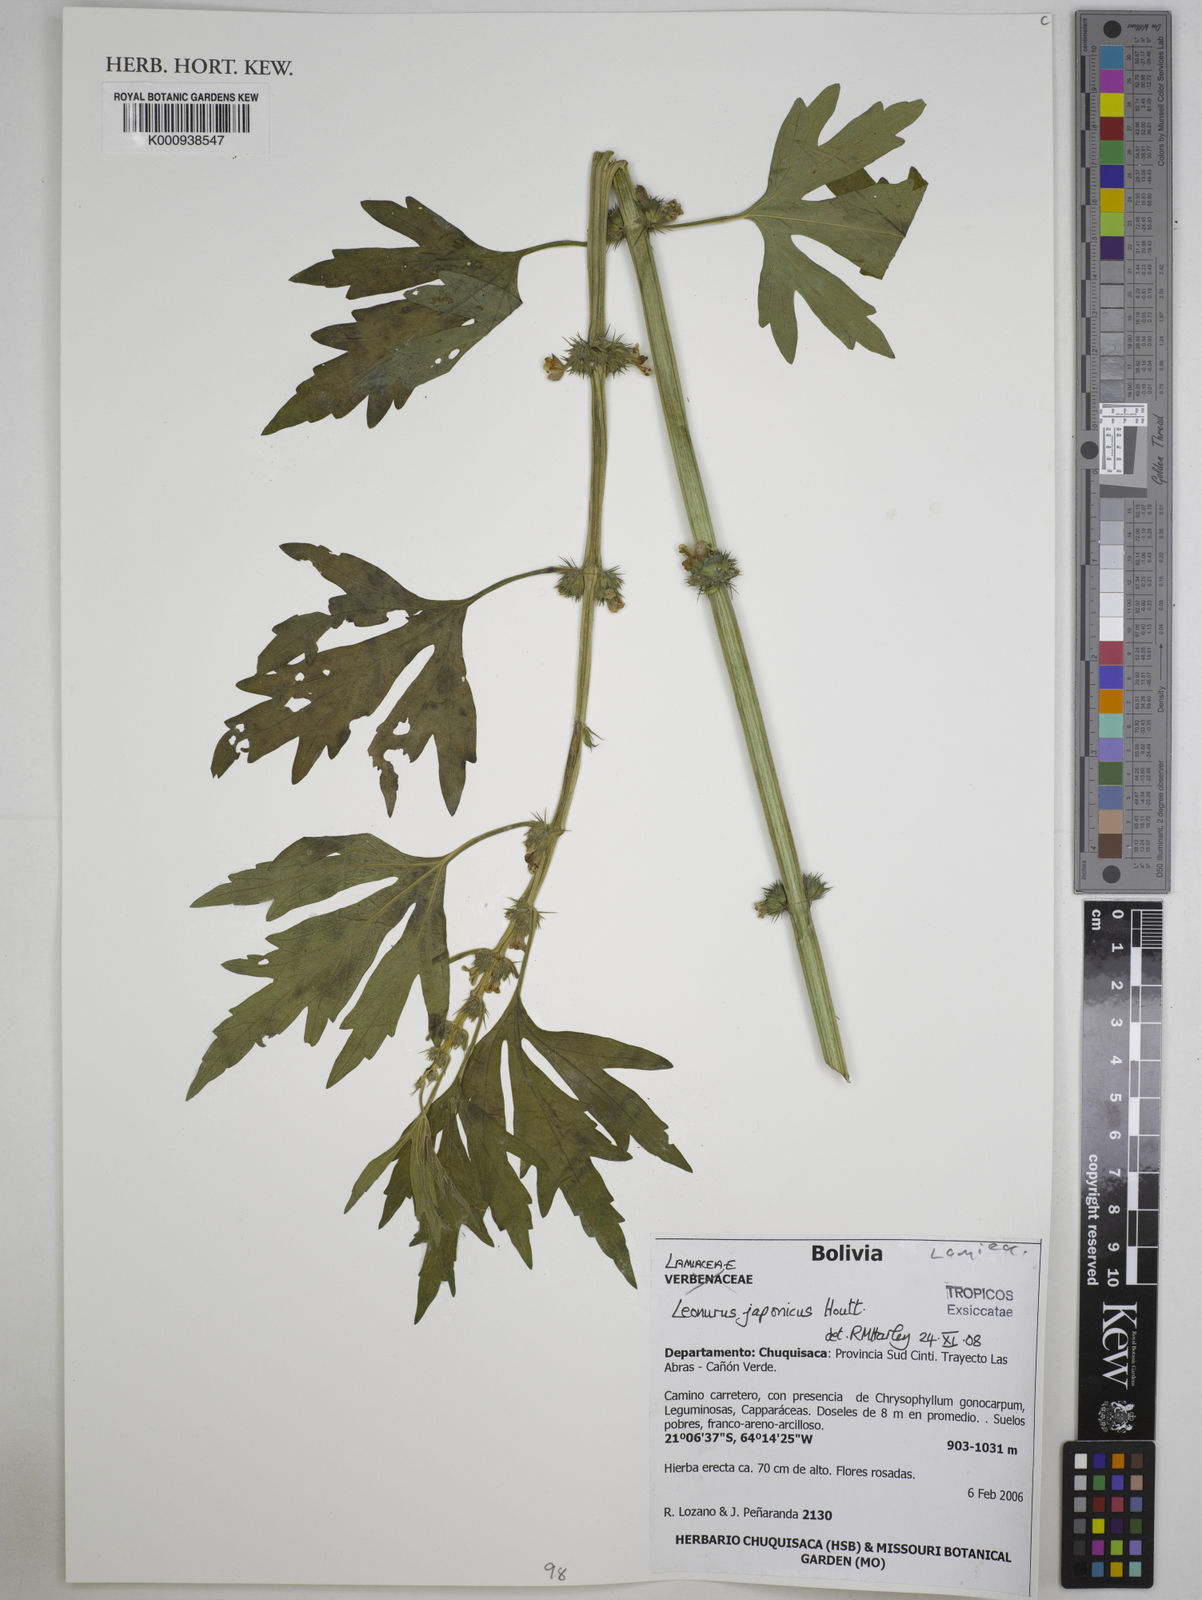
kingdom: Plantae
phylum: Tracheophyta
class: Magnoliopsida
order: Lamiales
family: Lamiaceae
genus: Leonurus
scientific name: Leonurus japonicus
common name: Honeyweed
